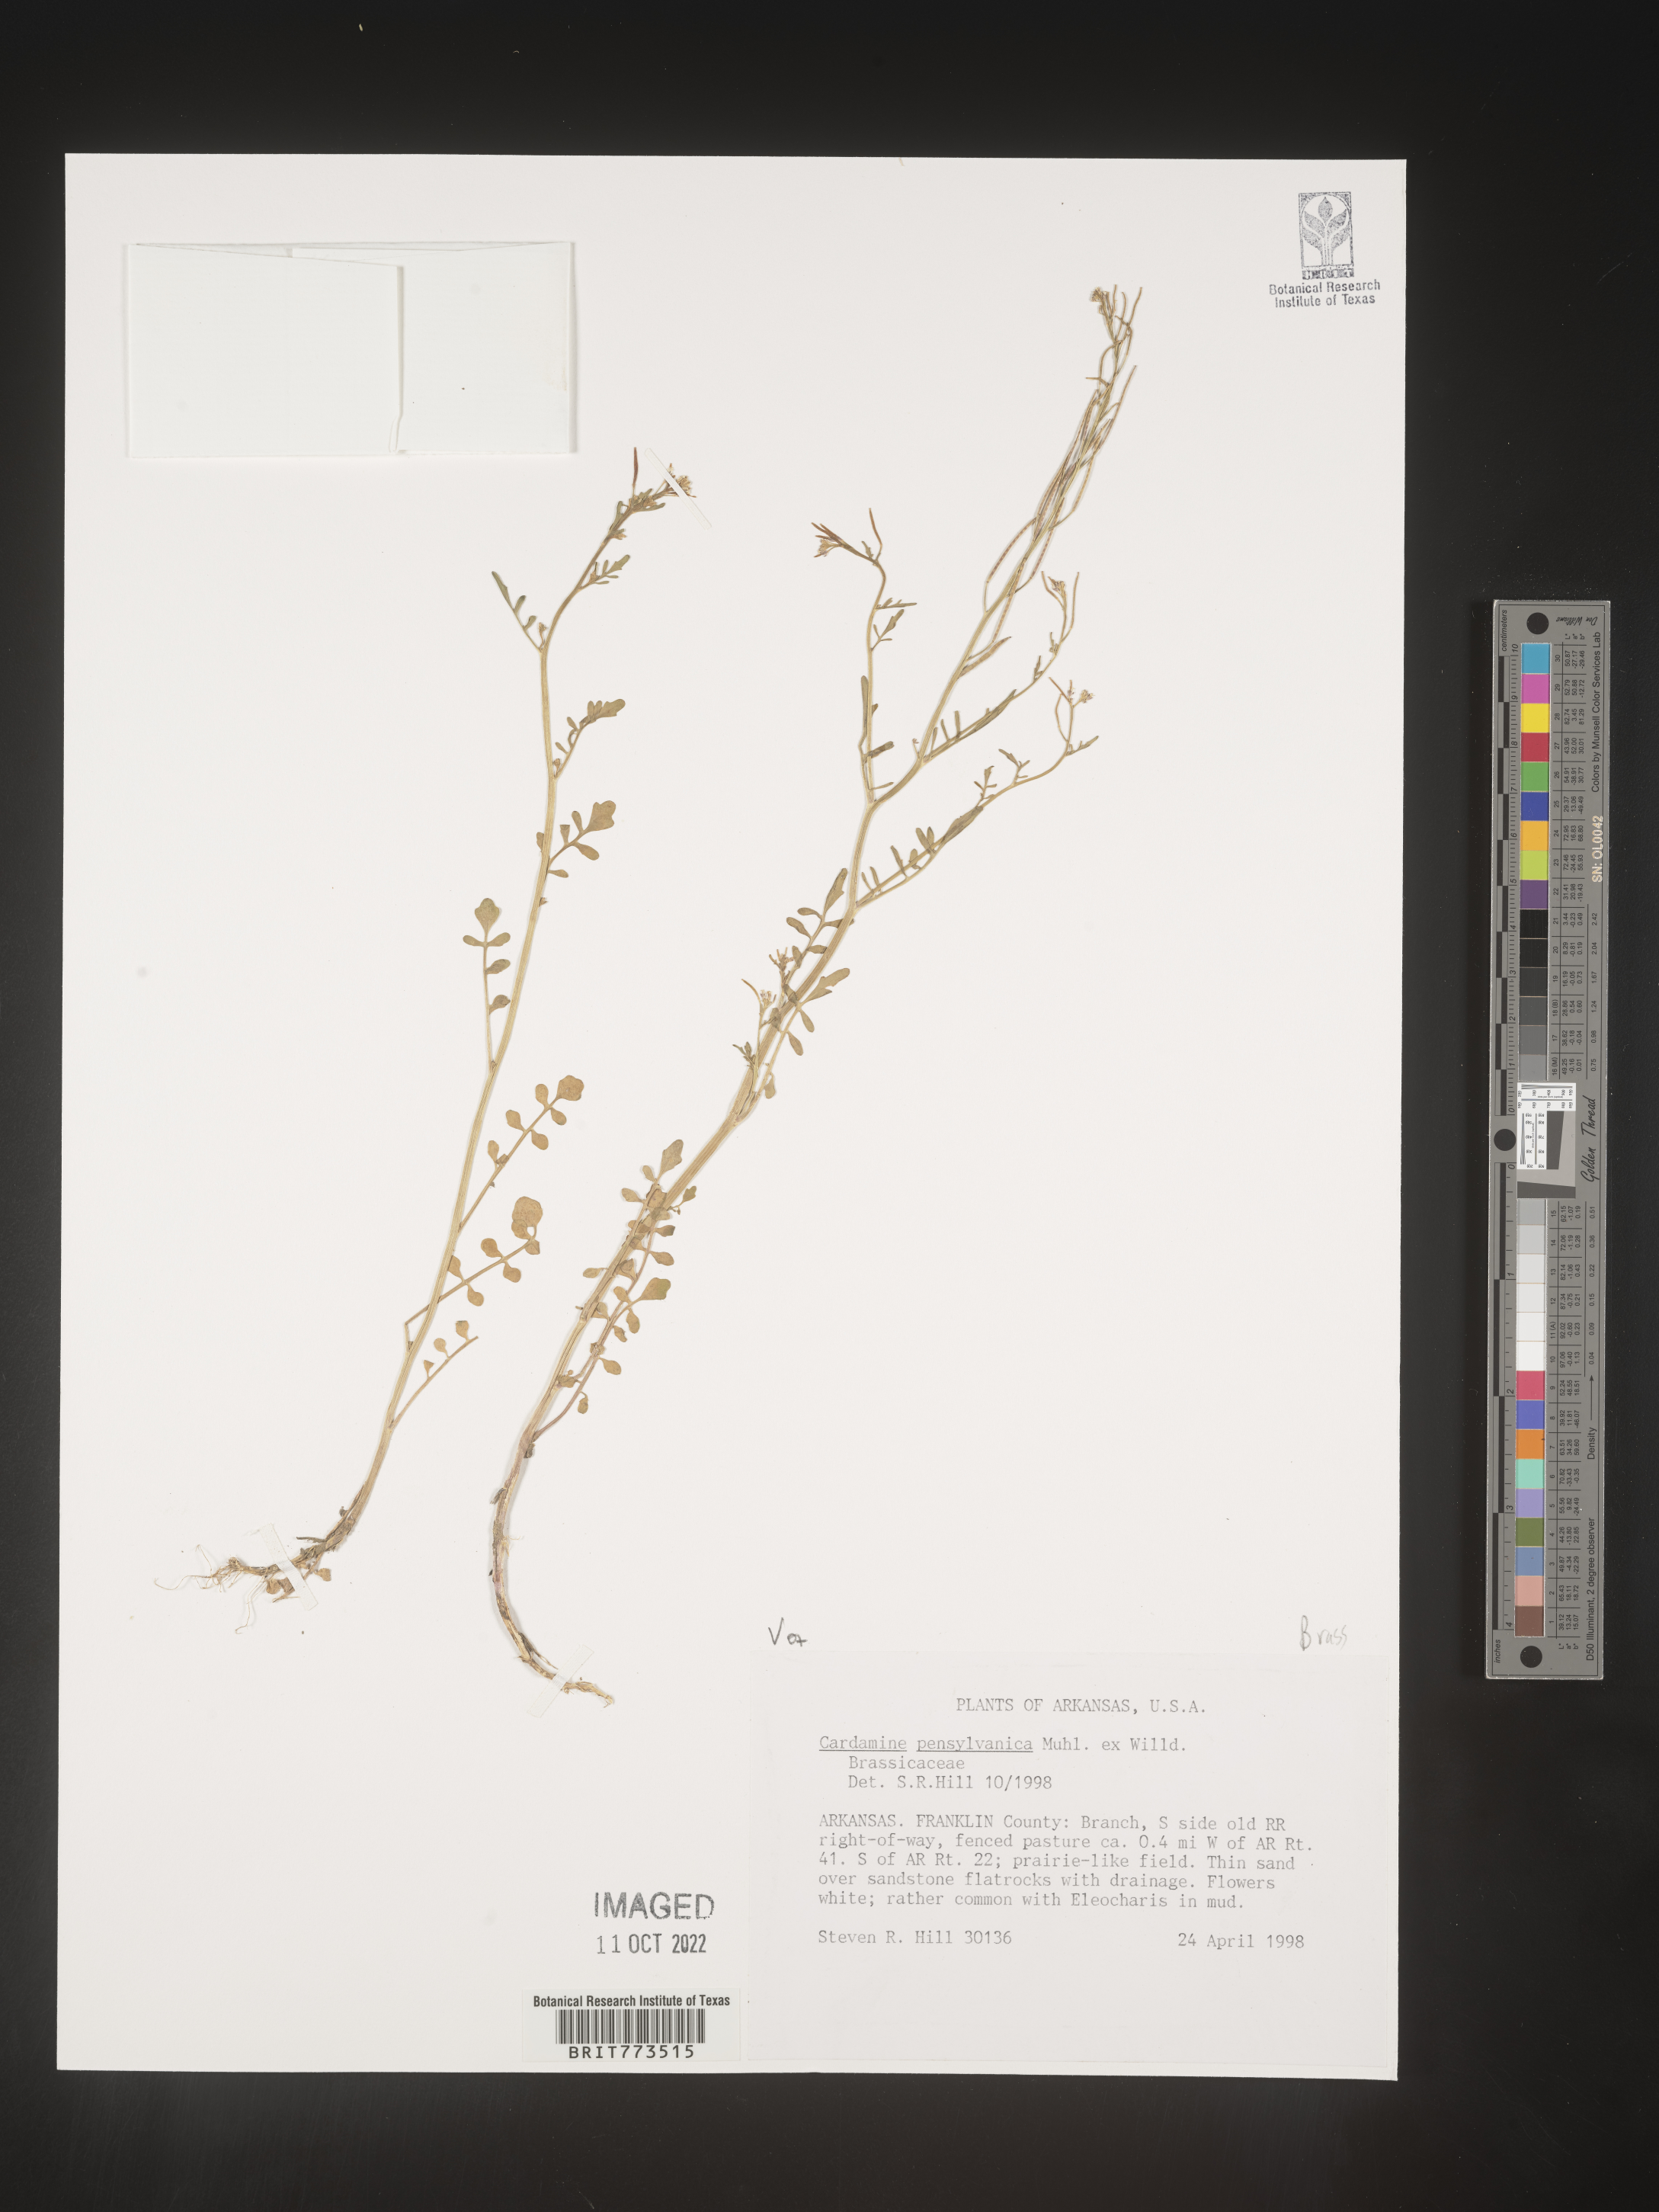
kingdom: Plantae
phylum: Tracheophyta
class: Magnoliopsida
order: Brassicales
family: Brassicaceae
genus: Cardamine
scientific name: Cardamine pensylvanica
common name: Pennsylvania bittercress
